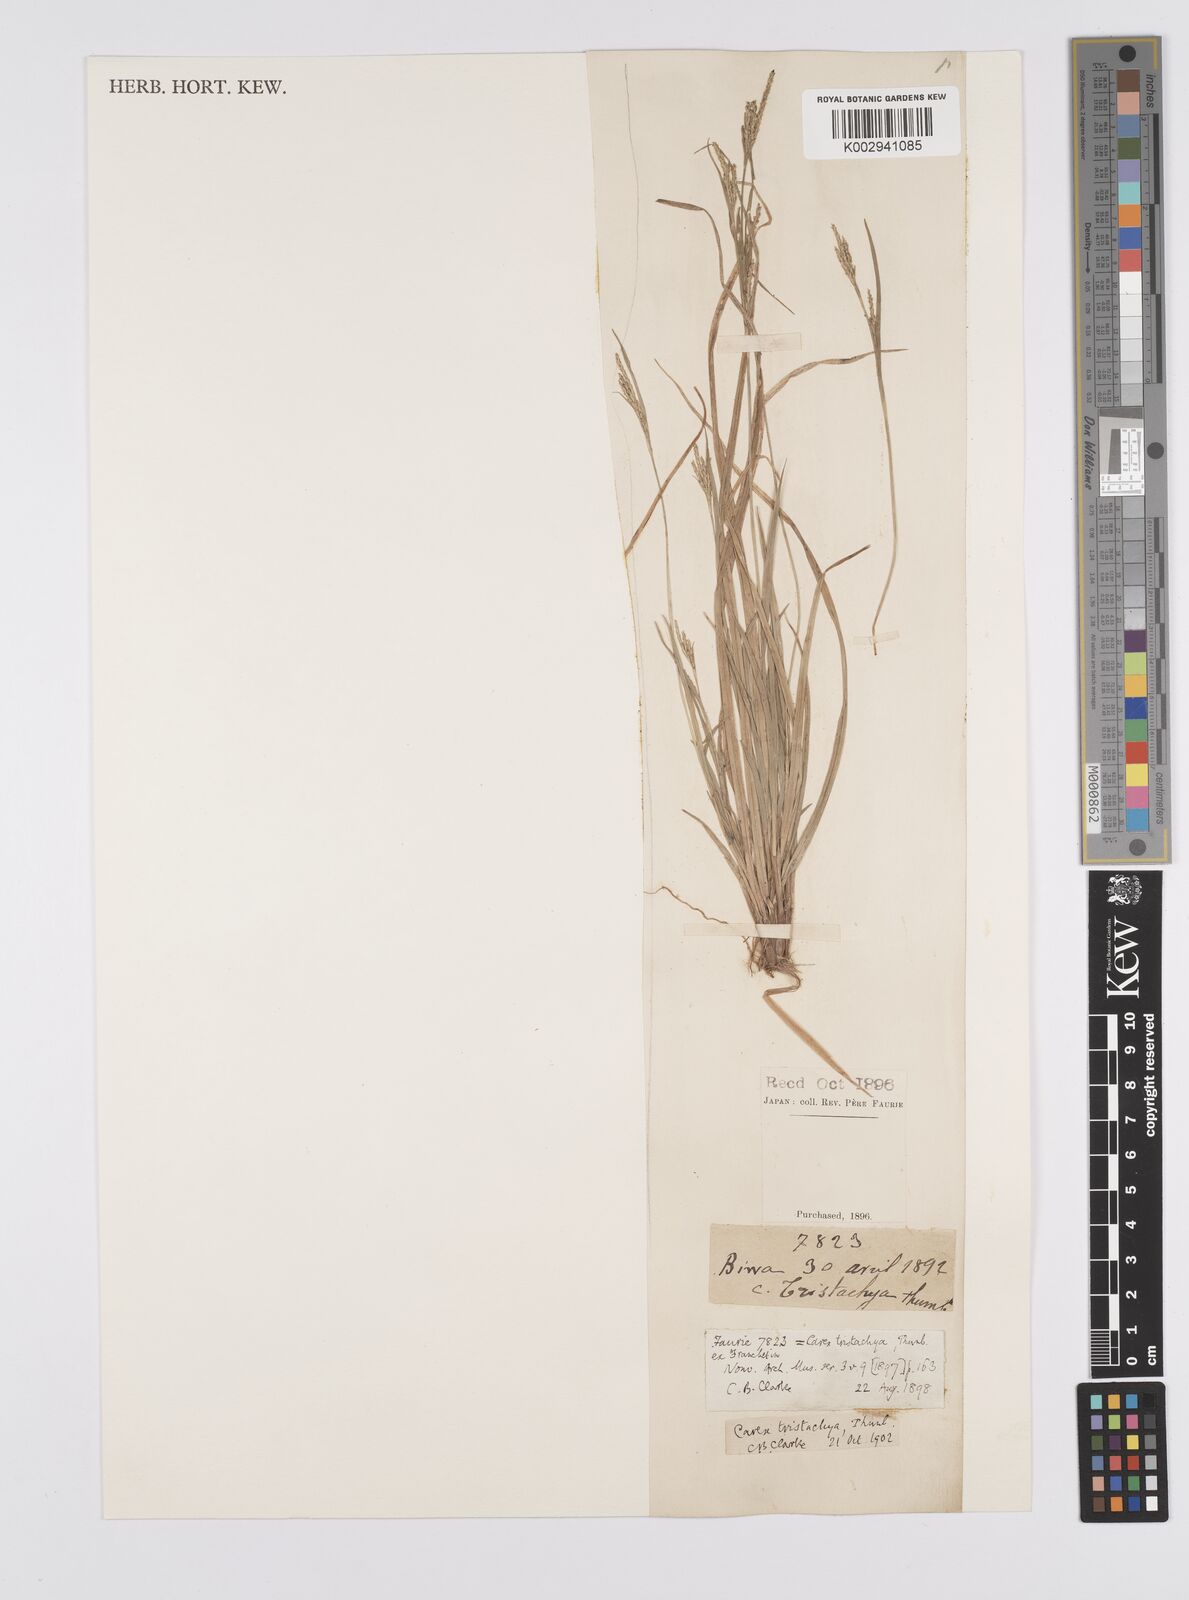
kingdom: Plantae
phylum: Tracheophyta
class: Liliopsida
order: Poales
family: Cyperaceae
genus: Carex
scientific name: Carex tristachya
